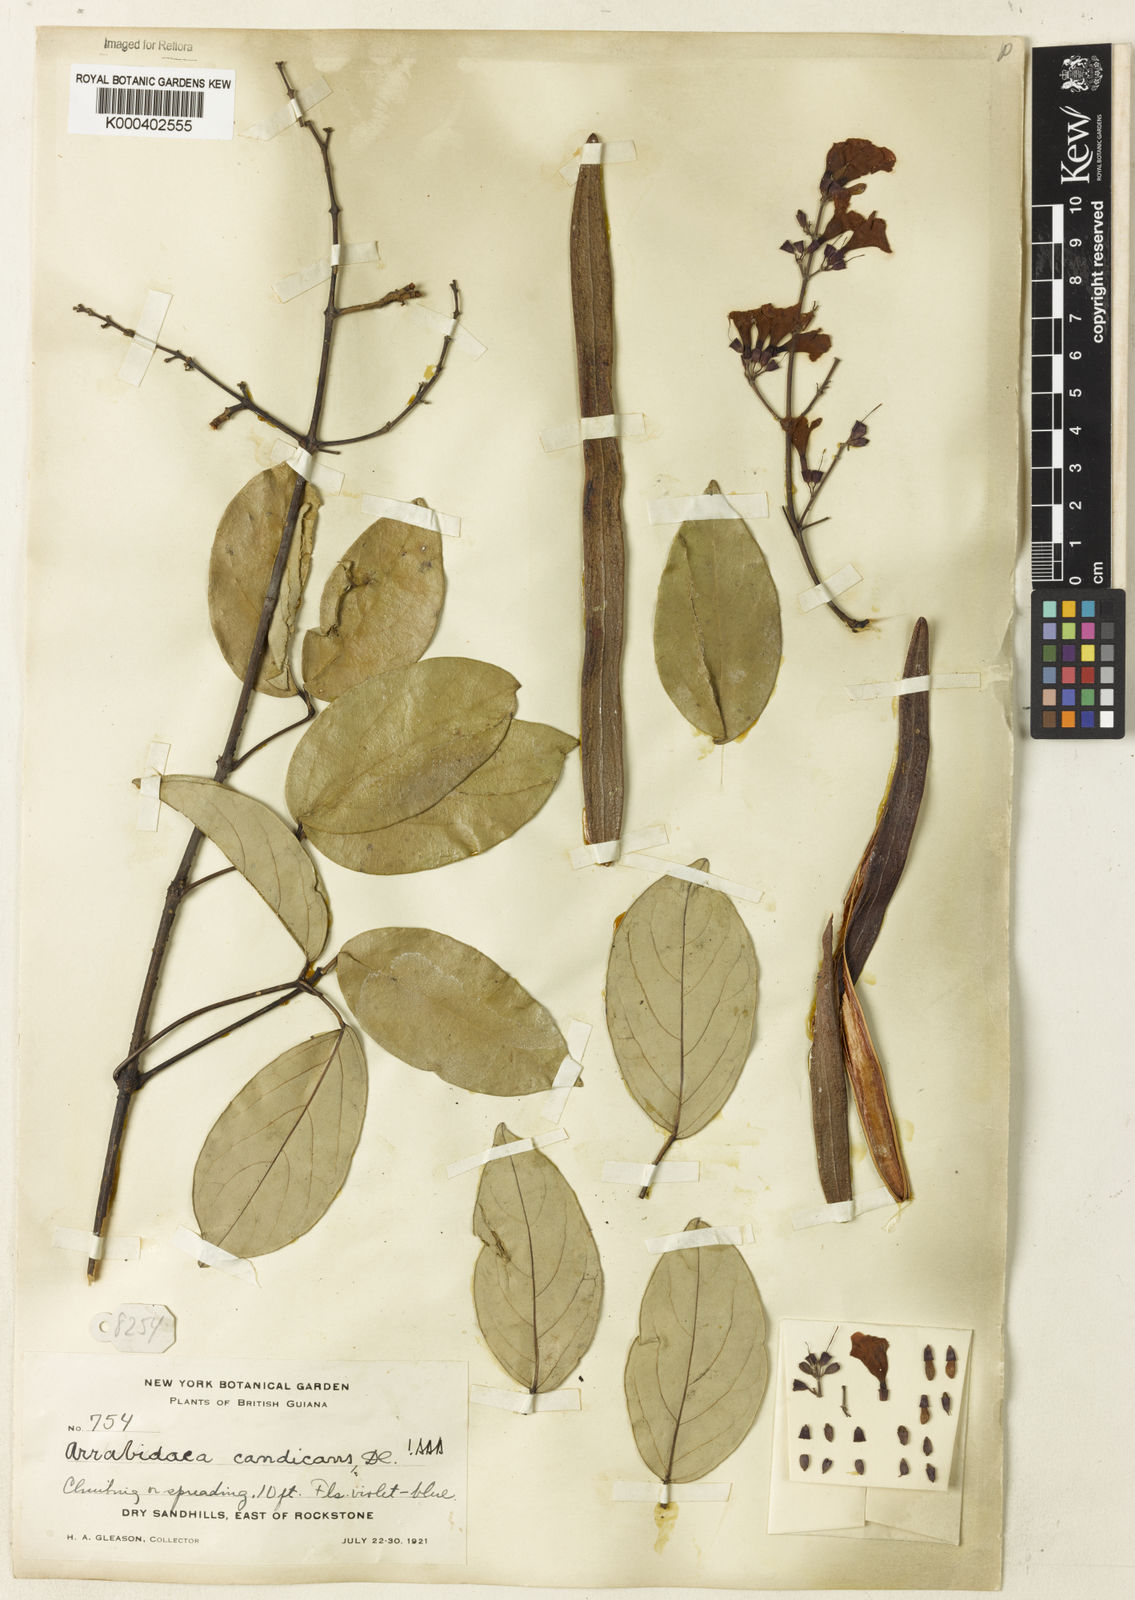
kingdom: Plantae
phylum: Tracheophyta
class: Magnoliopsida
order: Lamiales
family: Bignoniaceae
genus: Fridericia
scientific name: Fridericia candicans
